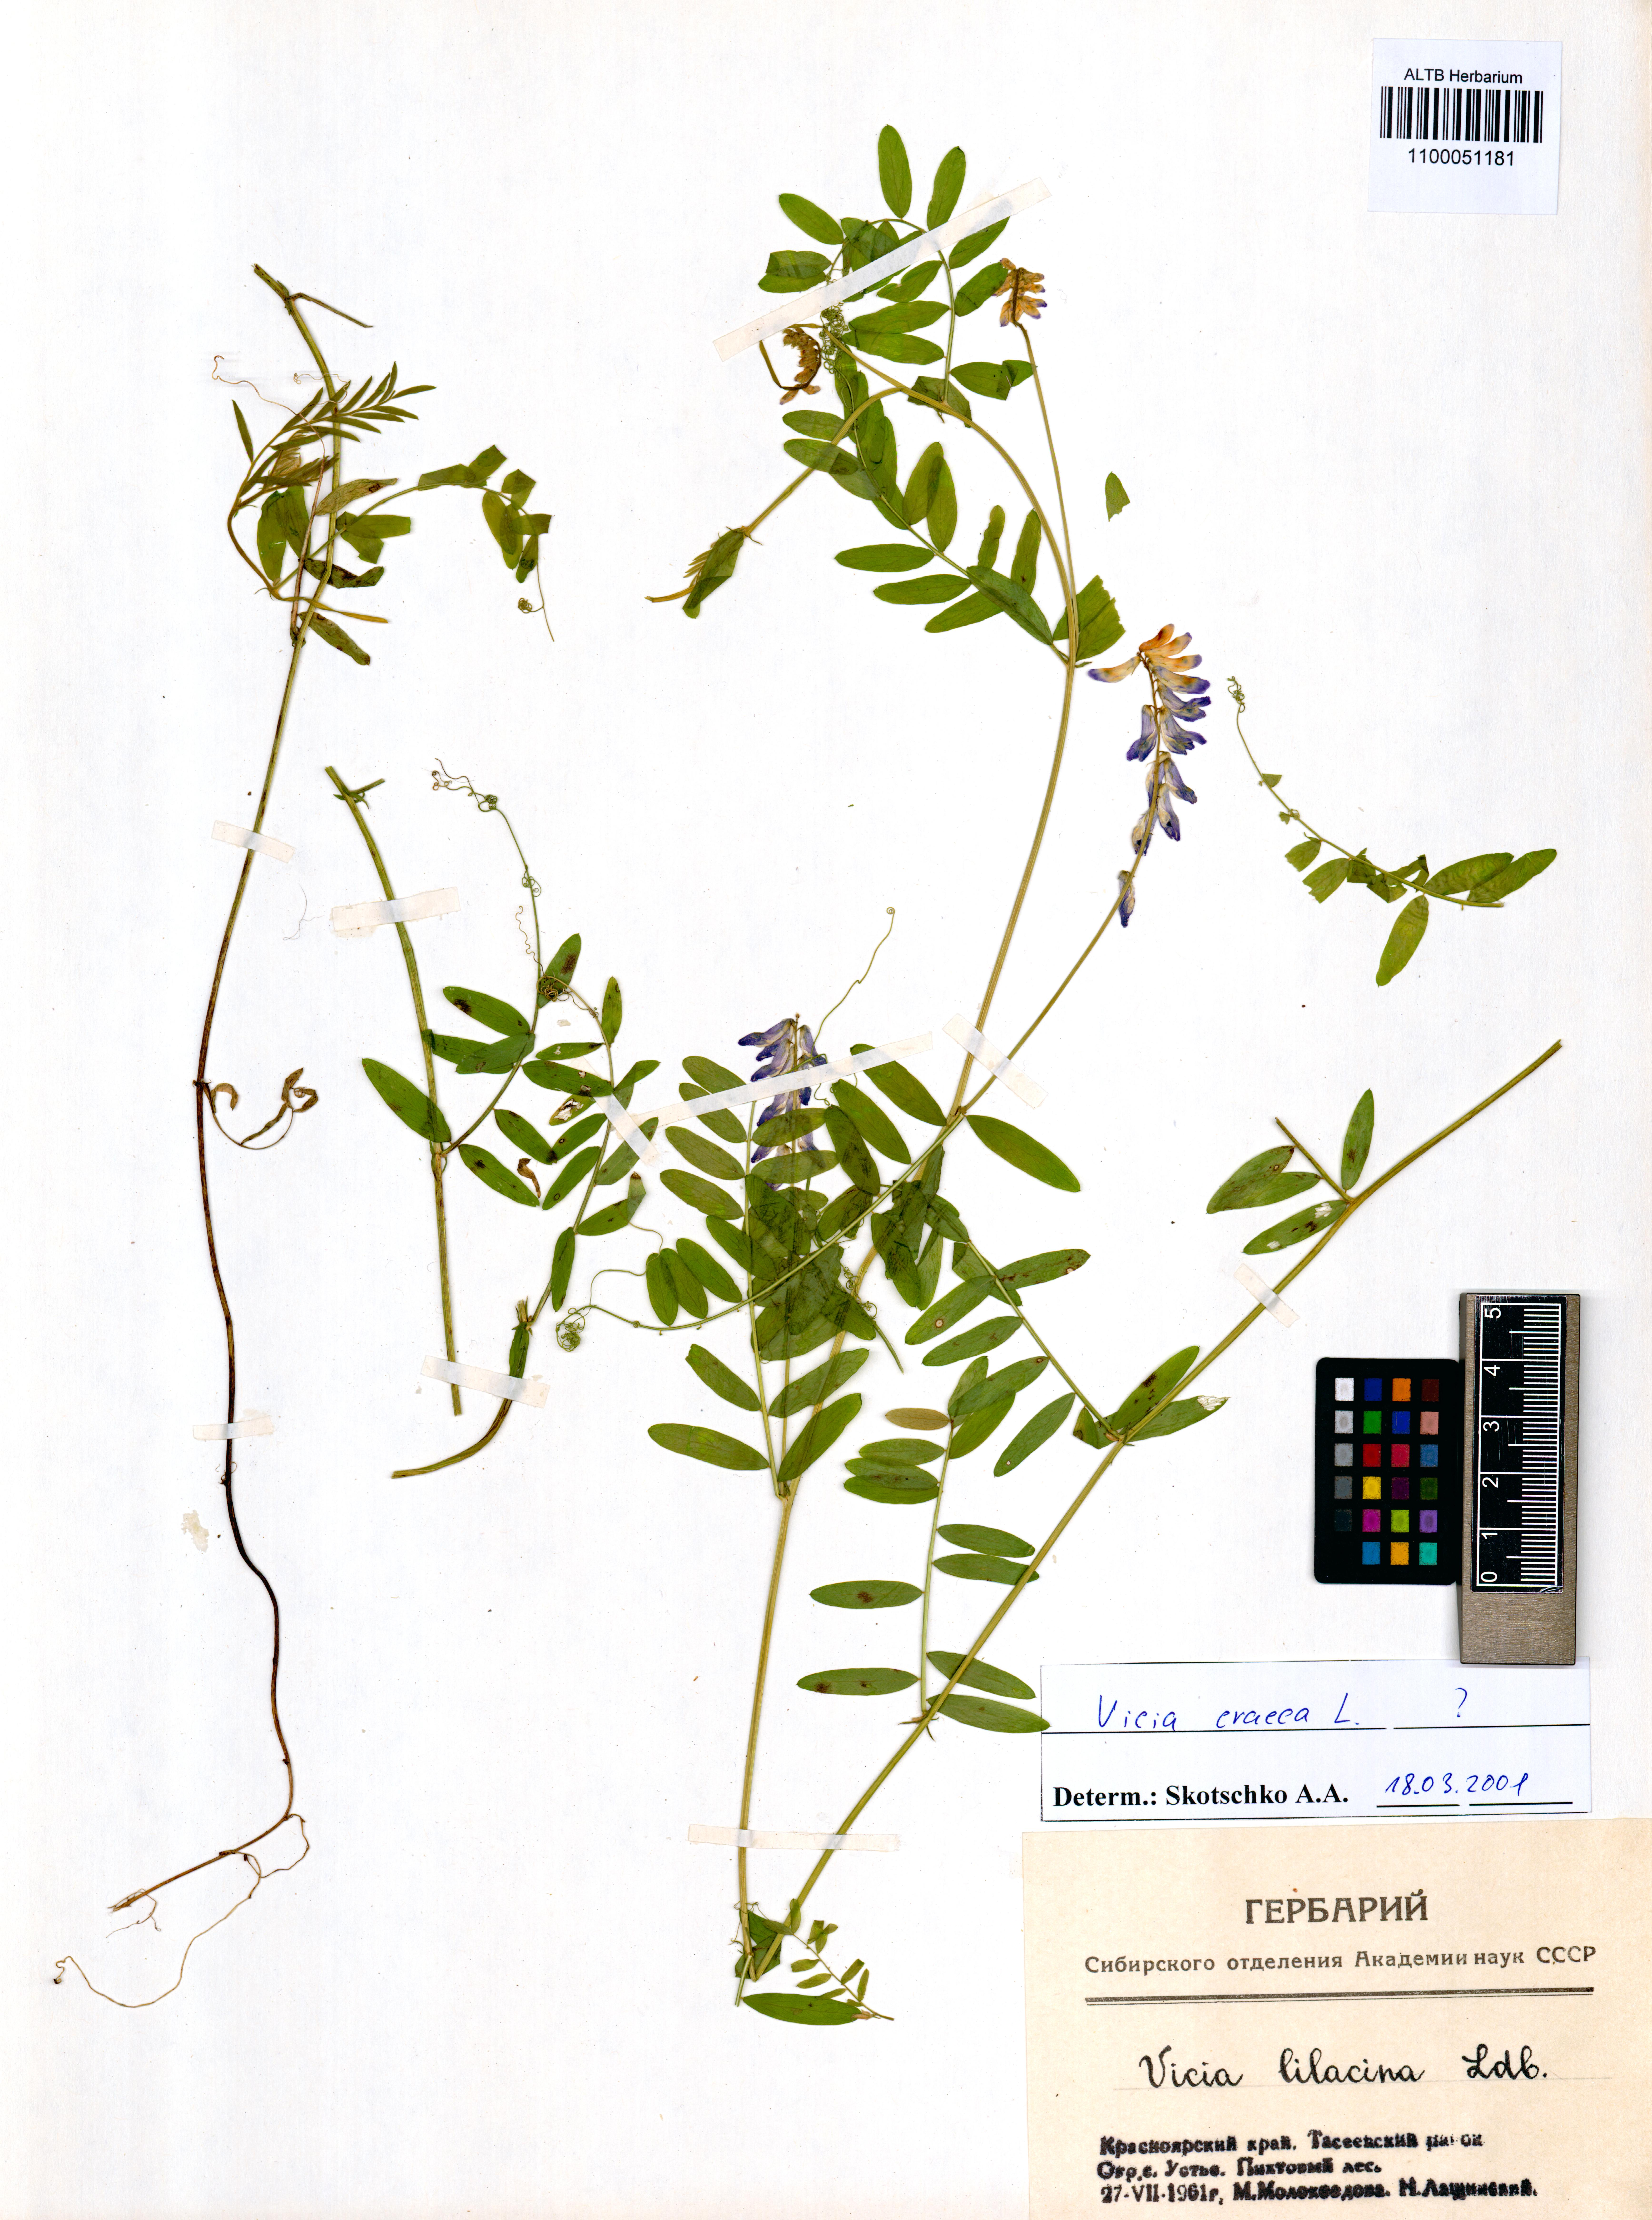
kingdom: Plantae
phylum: Tracheophyta
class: Magnoliopsida
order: Fabales
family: Fabaceae
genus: Vicia
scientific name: Vicia cracca
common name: Bird vetch
